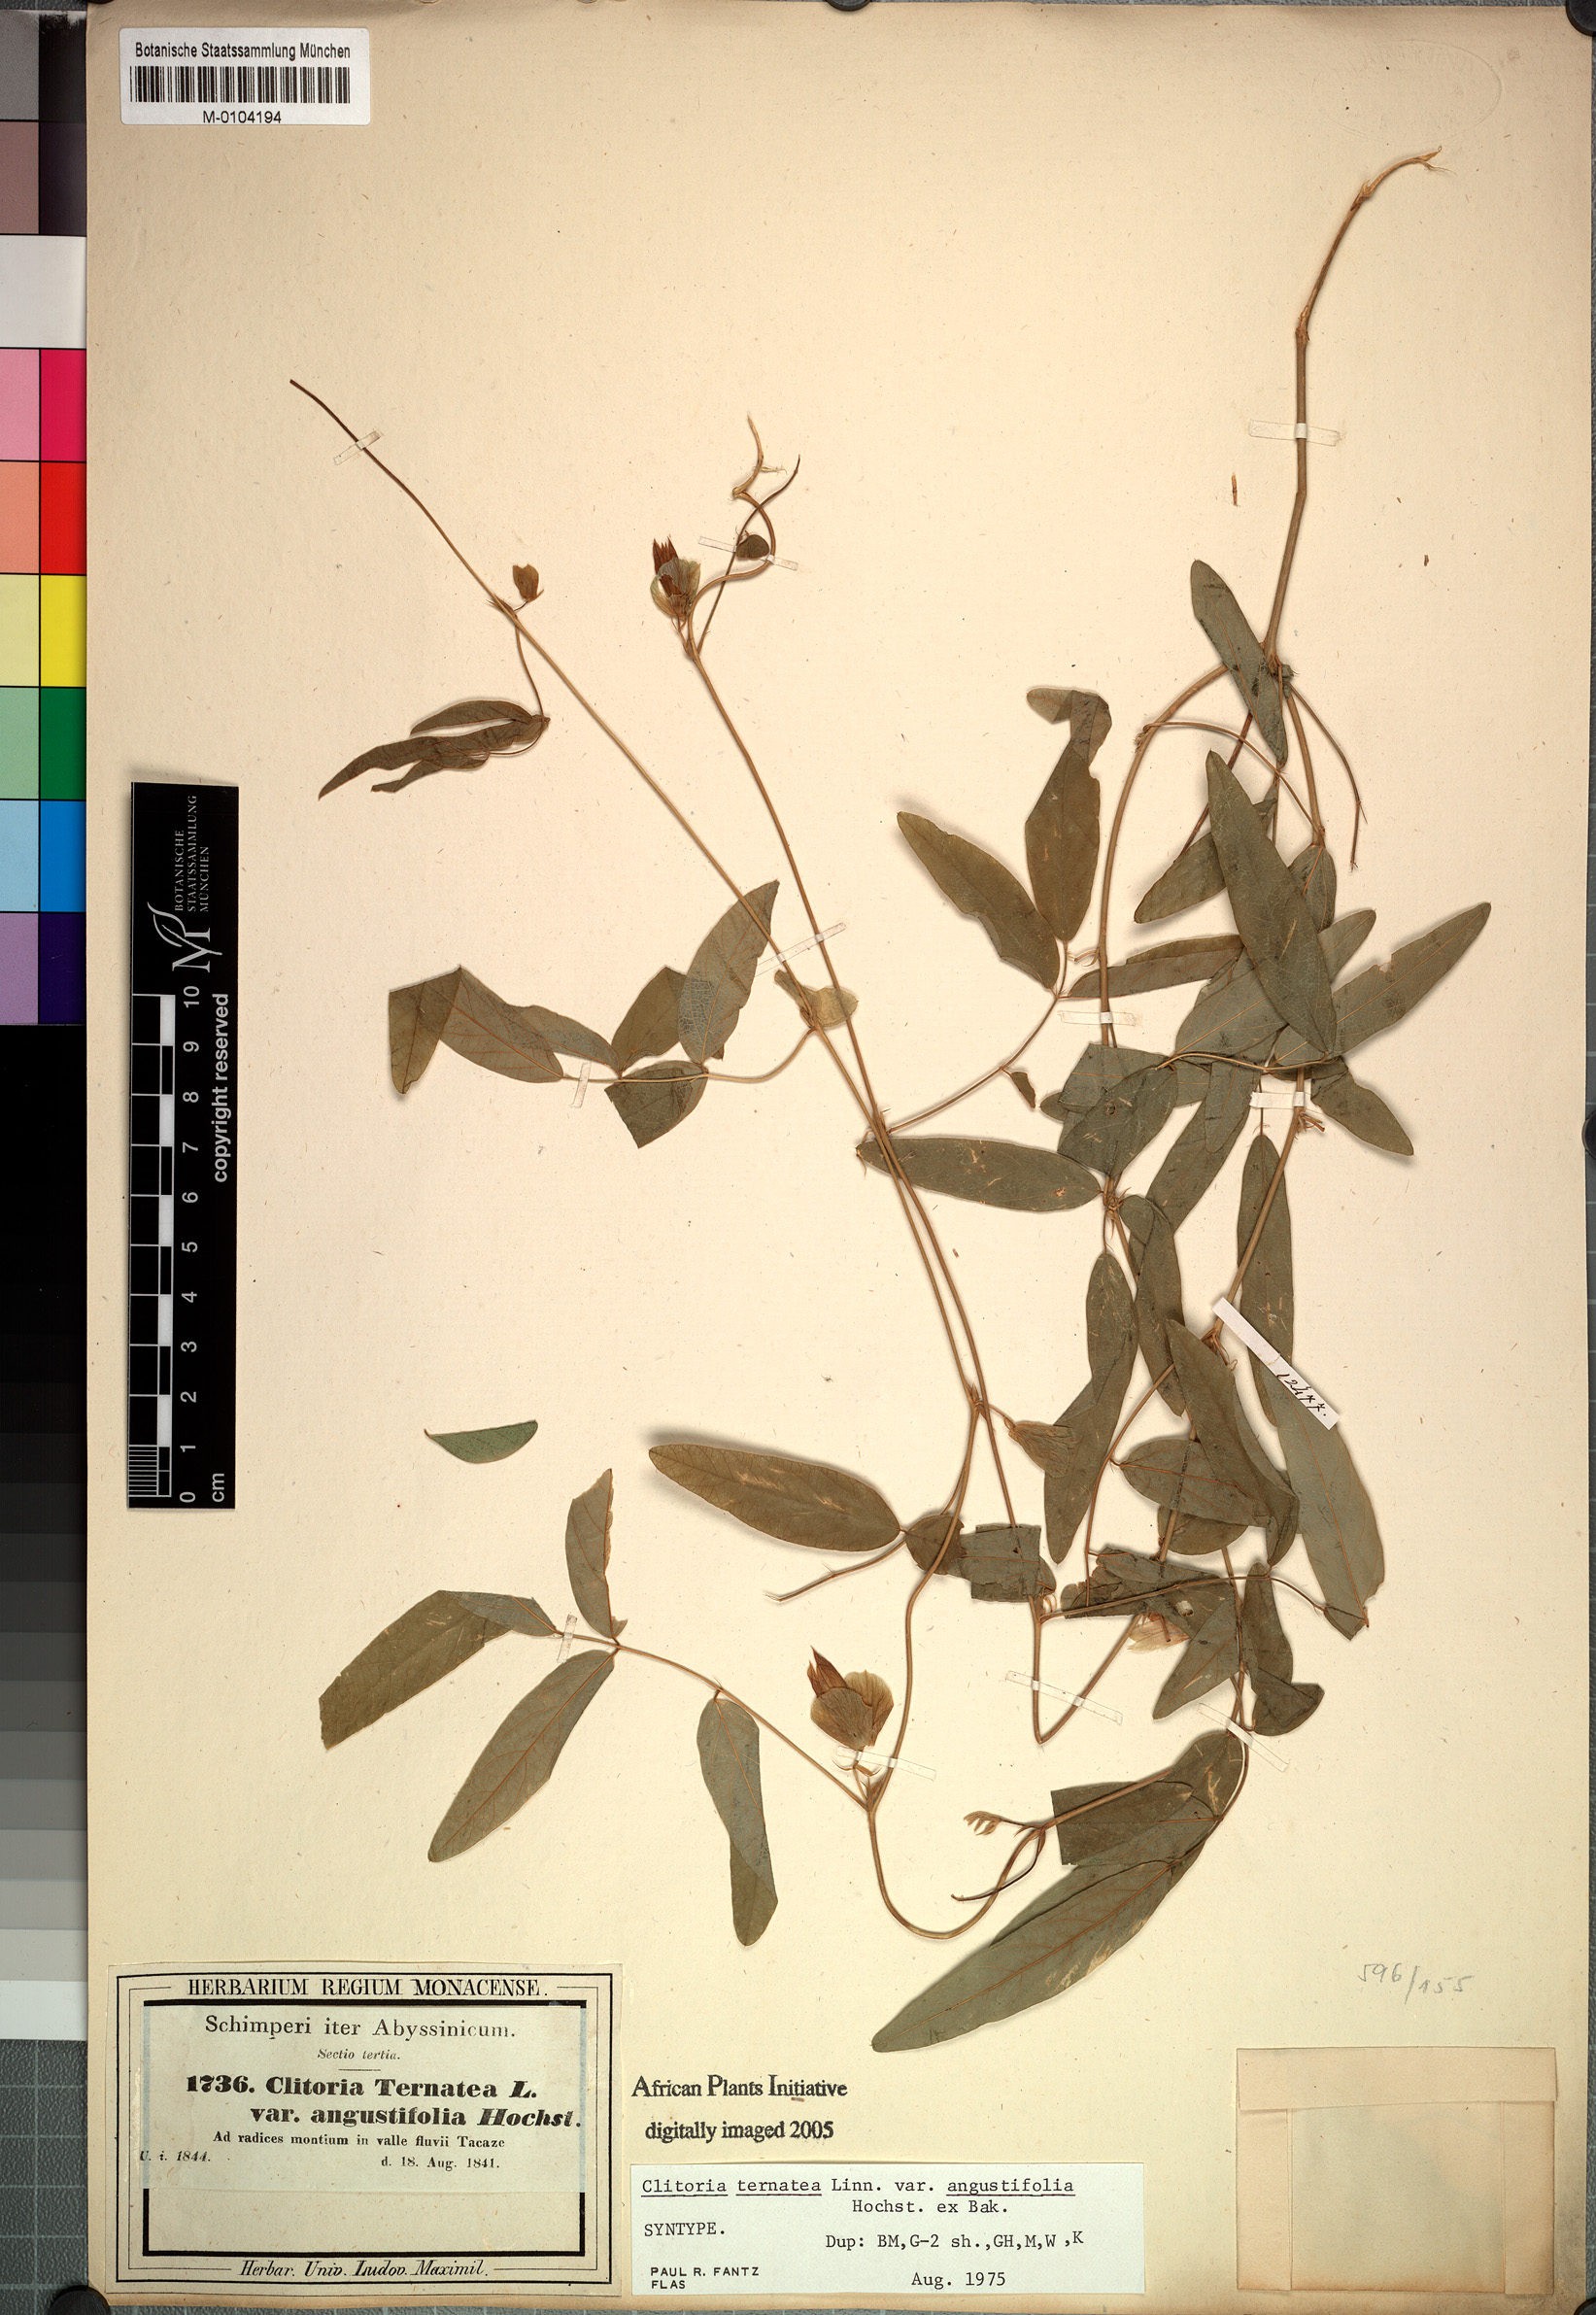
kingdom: Plantae
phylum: Tracheophyta
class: Magnoliopsida
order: Fabales
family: Fabaceae
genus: Clitoria
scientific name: Clitoria ternatea
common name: Asian pigeonwings
